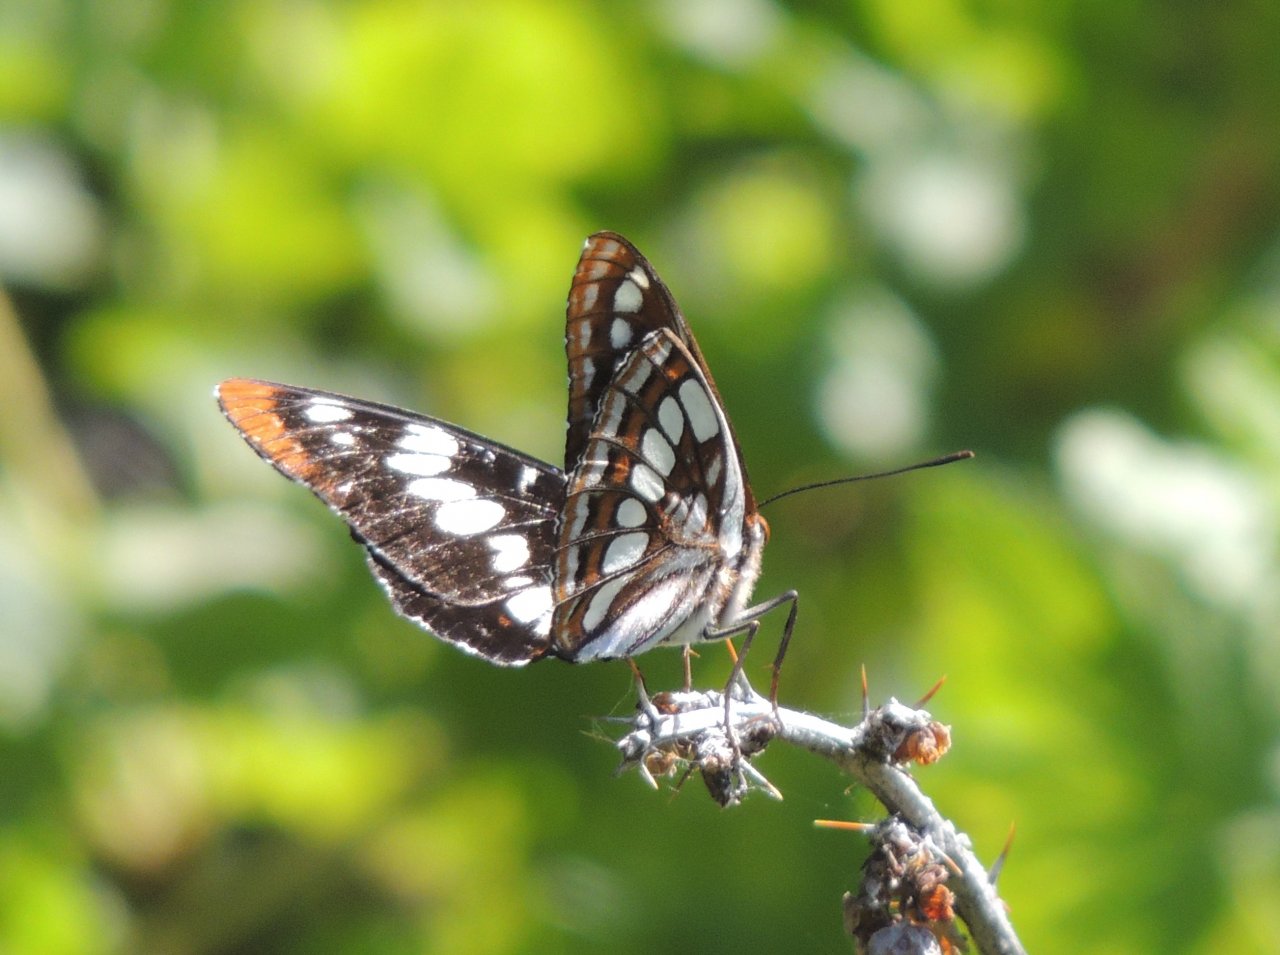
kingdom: Animalia
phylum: Arthropoda
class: Insecta
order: Lepidoptera
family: Nymphalidae
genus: Limenitis
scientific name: Limenitis lorquini
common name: Lorquin's Admiral
